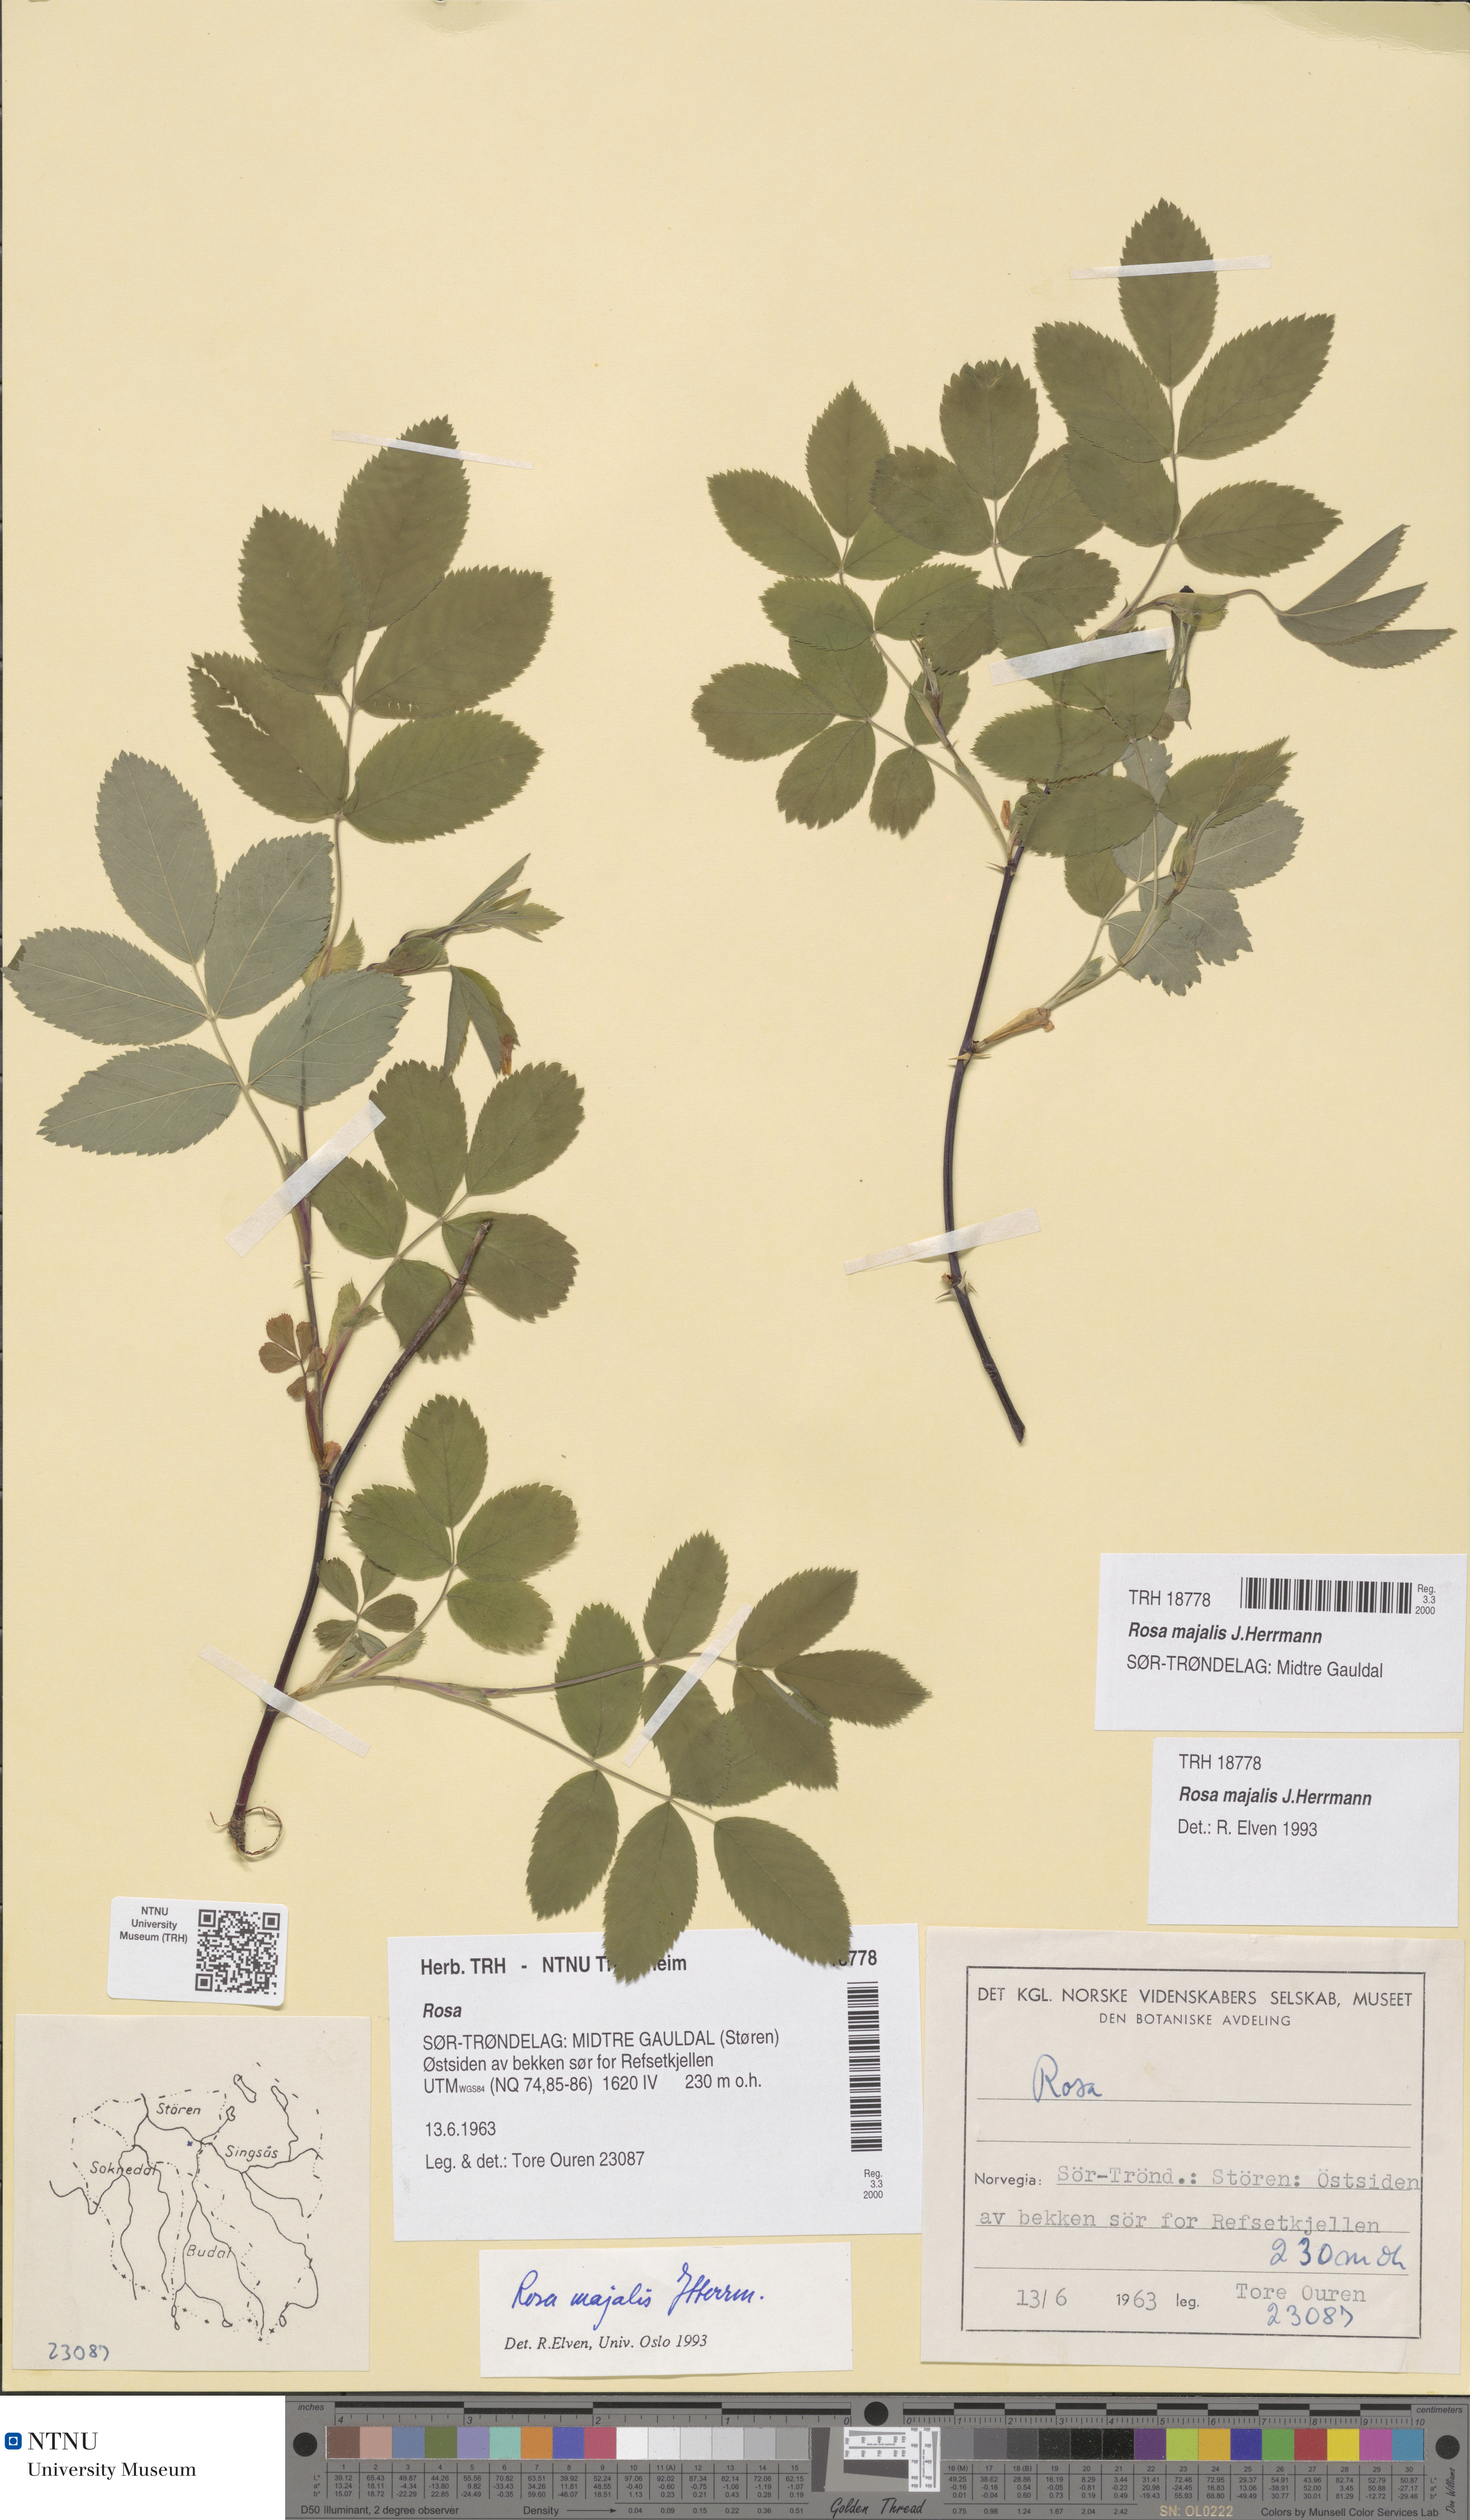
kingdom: Plantae
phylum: Tracheophyta
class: Magnoliopsida
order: Rosales
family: Rosaceae
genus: Rosa
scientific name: Rosa majalis
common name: Cinnamon rose
